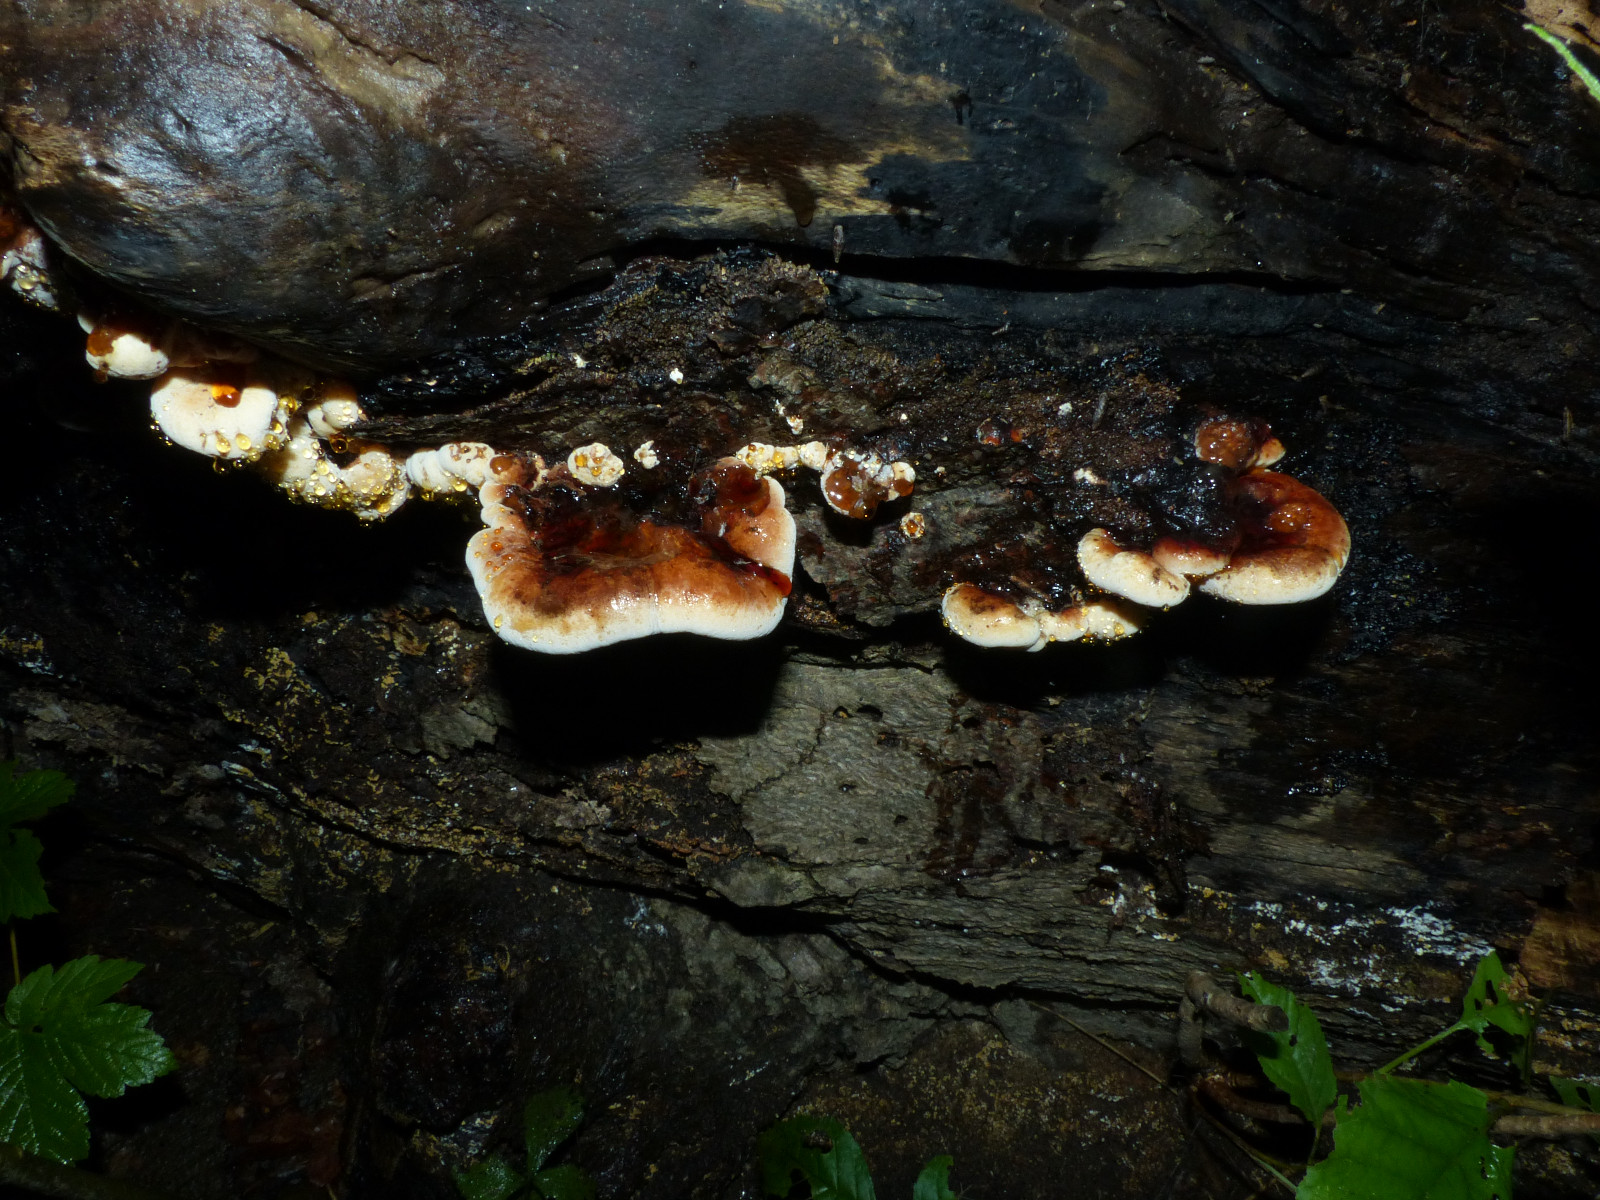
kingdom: Fungi
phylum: Basidiomycota
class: Agaricomycetes
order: Polyporales
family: Ischnodermataceae
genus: Ischnoderma
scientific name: Ischnoderma resinosum
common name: løv-tjæreporesvamp
